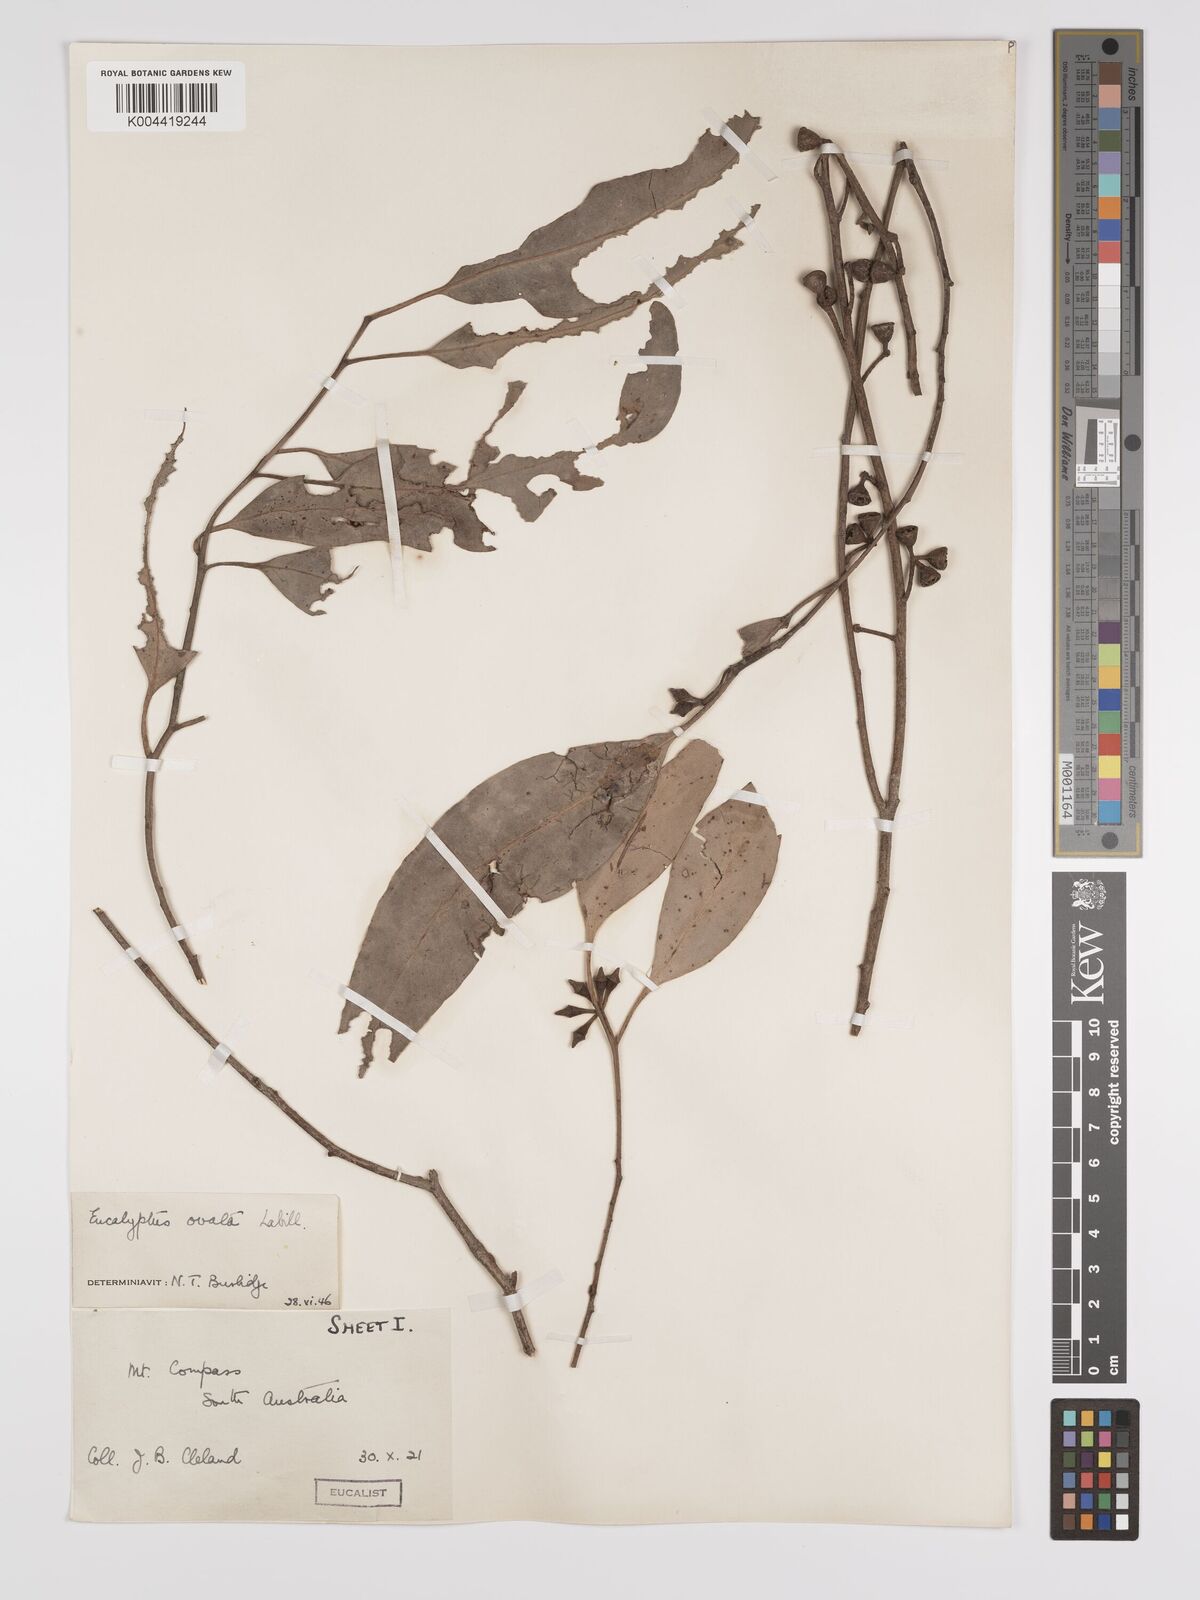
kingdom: Plantae
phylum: Tracheophyta
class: Magnoliopsida
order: Myrtales
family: Myrtaceae
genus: Eucalyptus
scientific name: Eucalyptus ovata
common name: Black-gum
